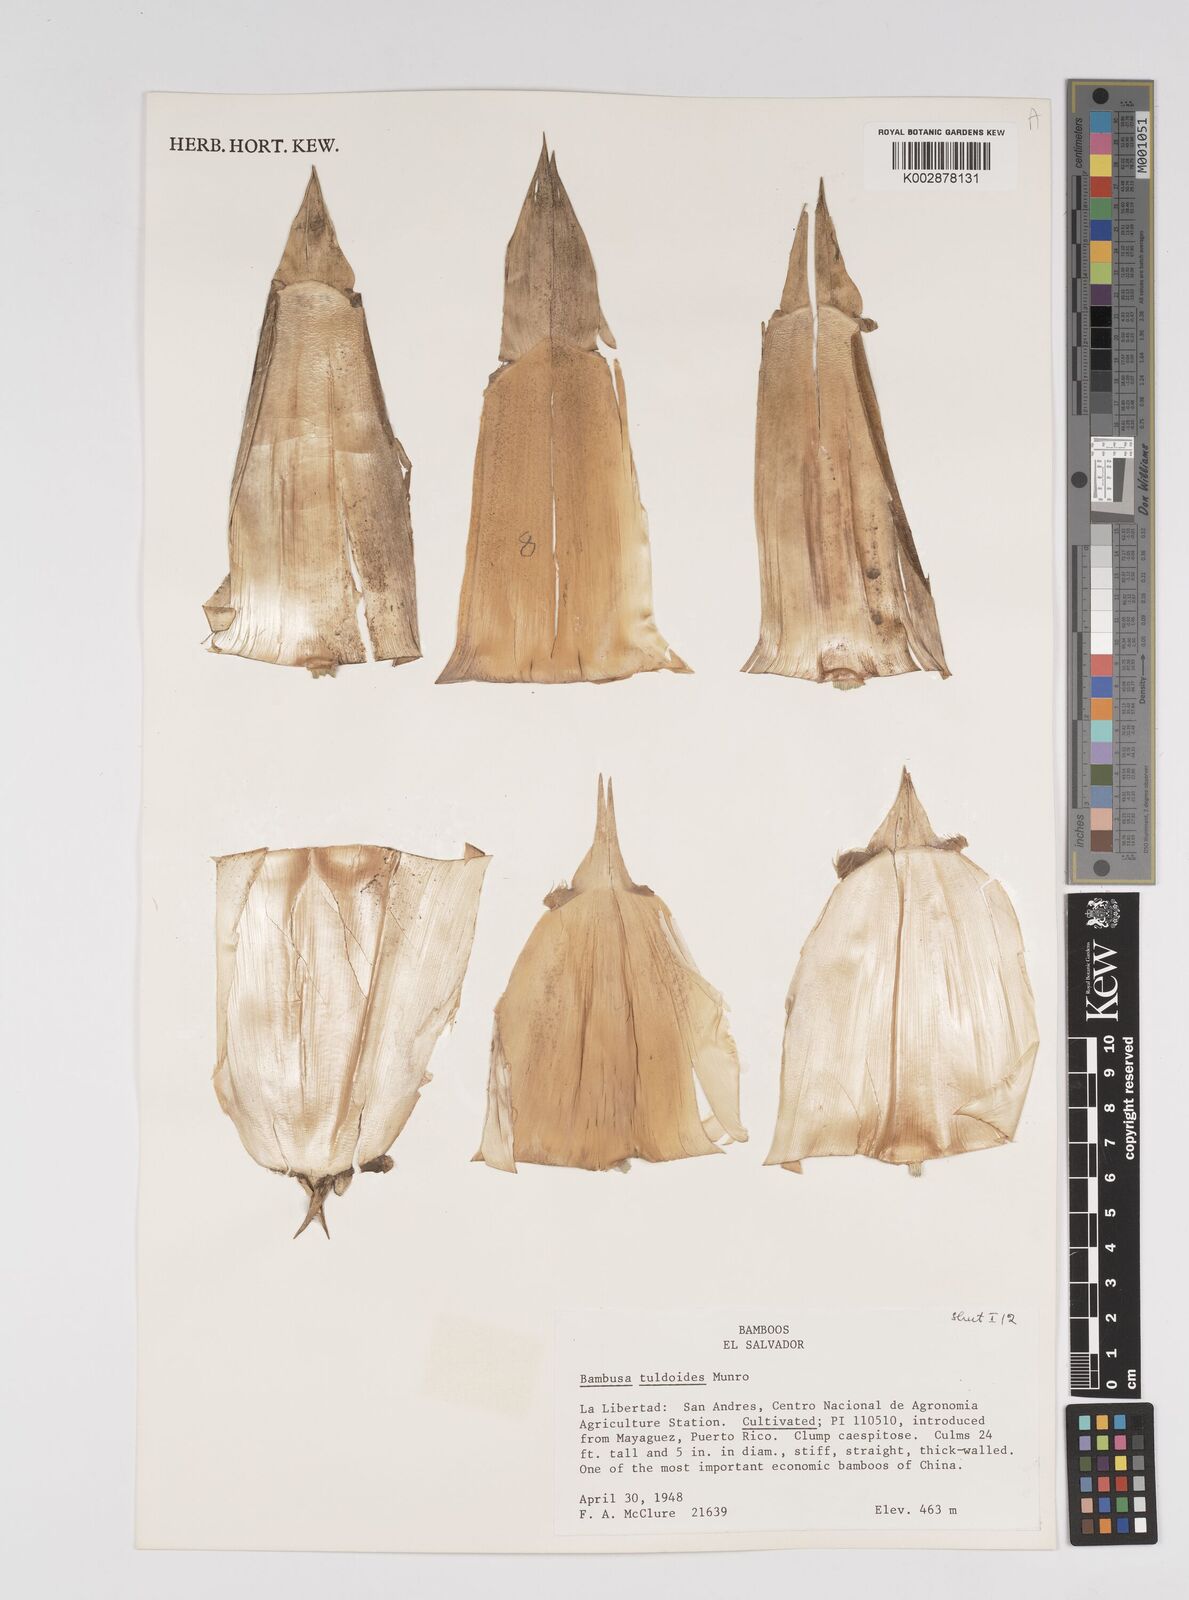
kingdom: Plantae
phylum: Tracheophyta
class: Liliopsida
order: Poales
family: Poaceae
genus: Bambusa
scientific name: Bambusa tuldoides
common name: Verdant bamboo
